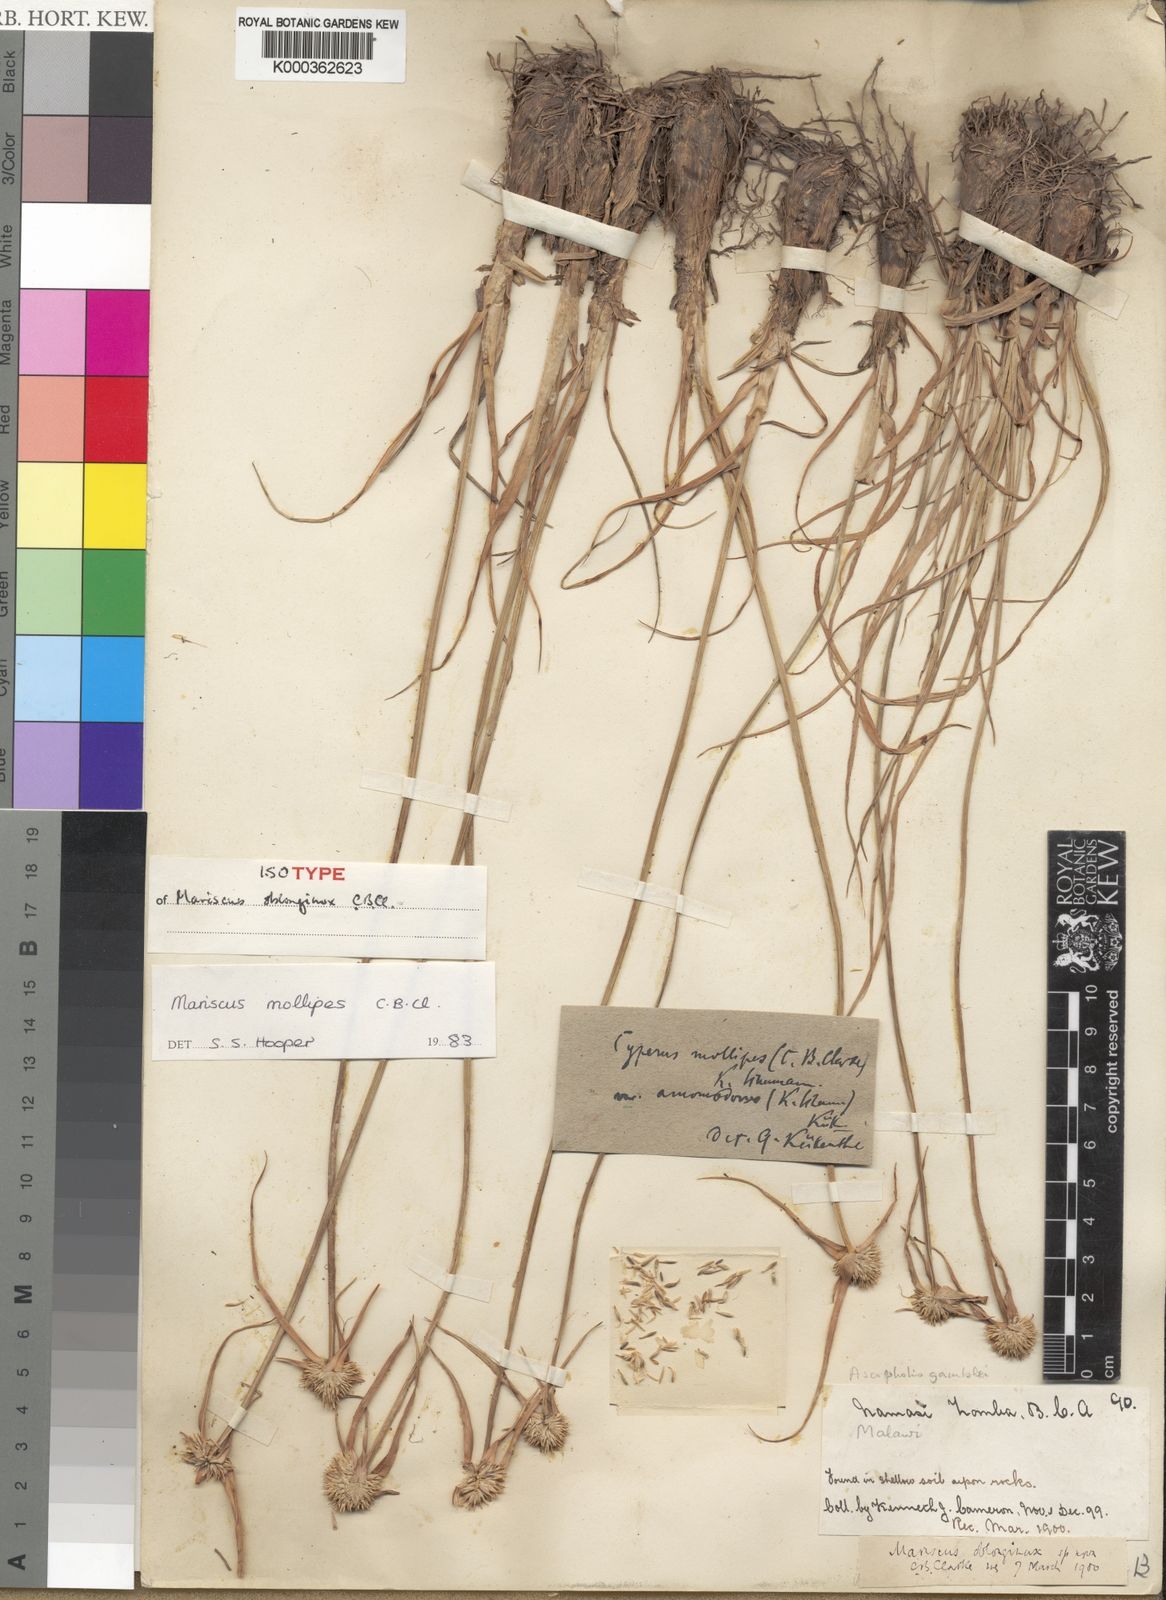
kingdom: Plantae
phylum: Tracheophyta
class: Liliopsida
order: Poales
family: Cyperaceae
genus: Cyperus
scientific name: Cyperus mollipes
